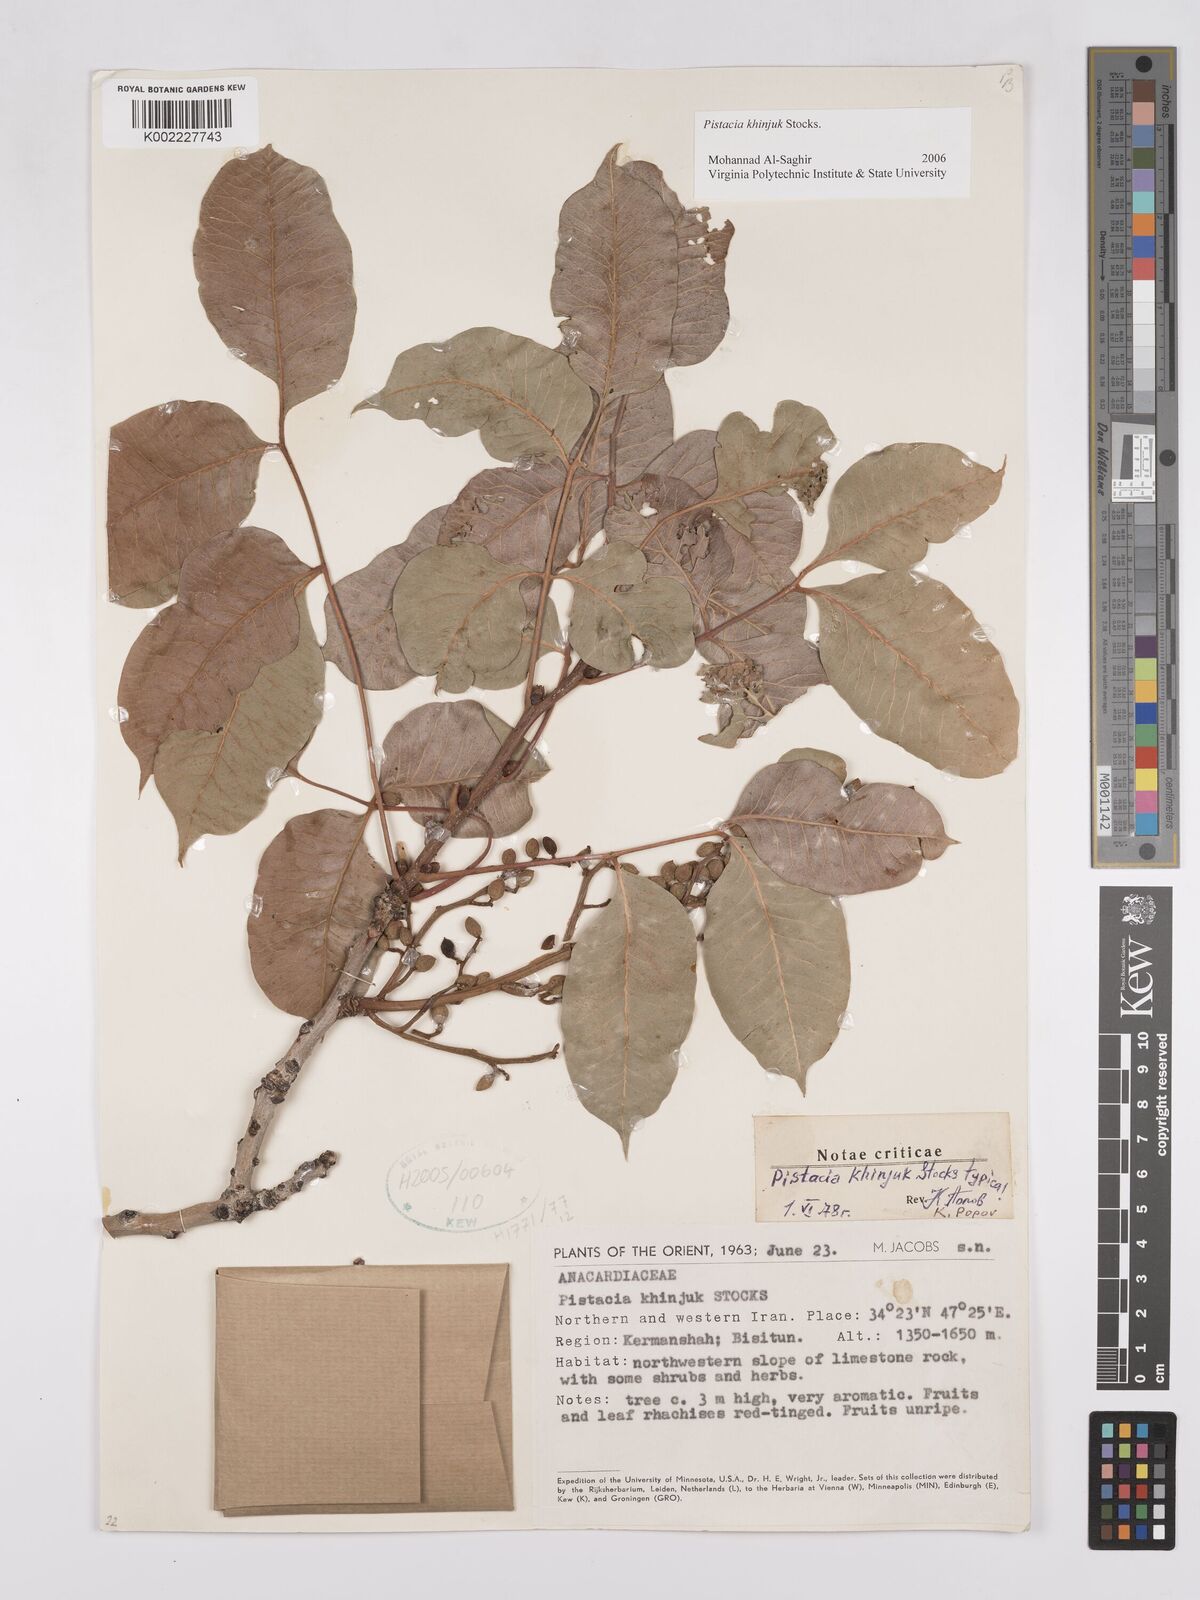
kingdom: Plantae
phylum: Tracheophyta
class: Magnoliopsida
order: Sapindales
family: Anacardiaceae
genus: Pistacia
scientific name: Pistacia khinjuk
